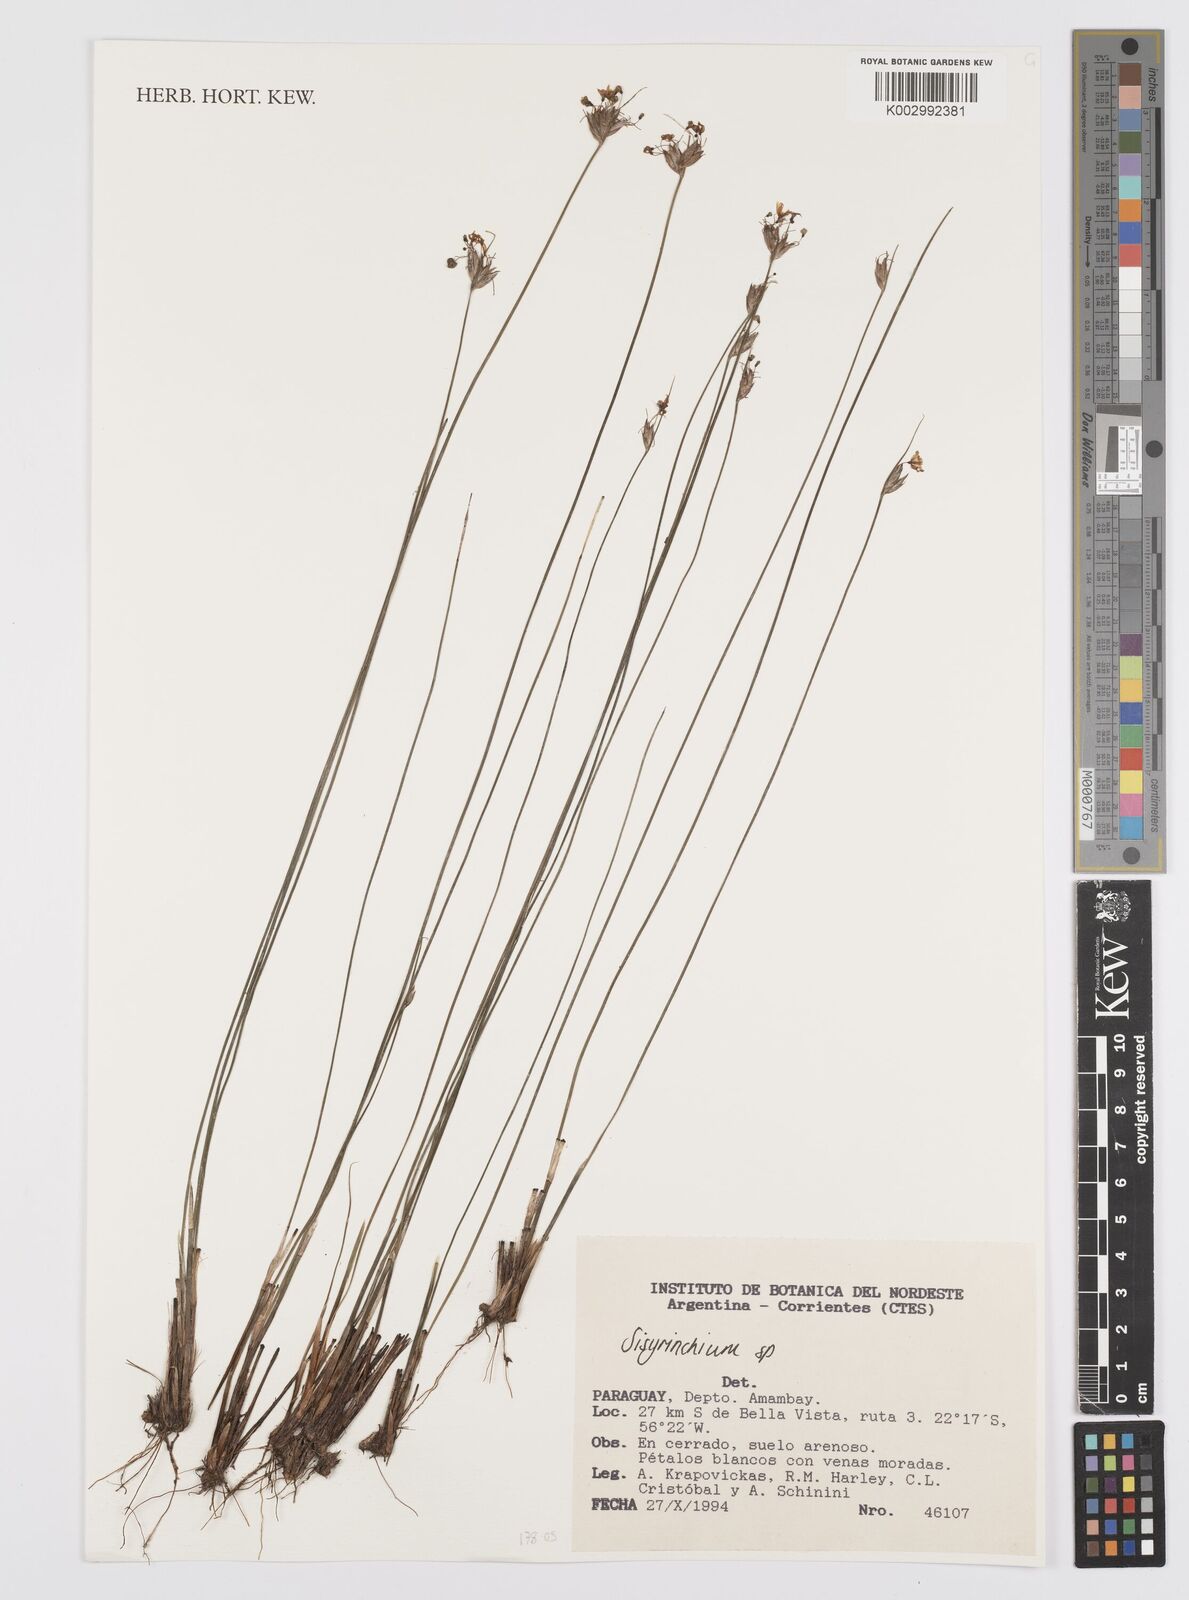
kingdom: Plantae
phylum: Tracheophyta
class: Liliopsida
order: Asparagales
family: Iridaceae
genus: Sisyrinchium
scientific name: Sisyrinchium
